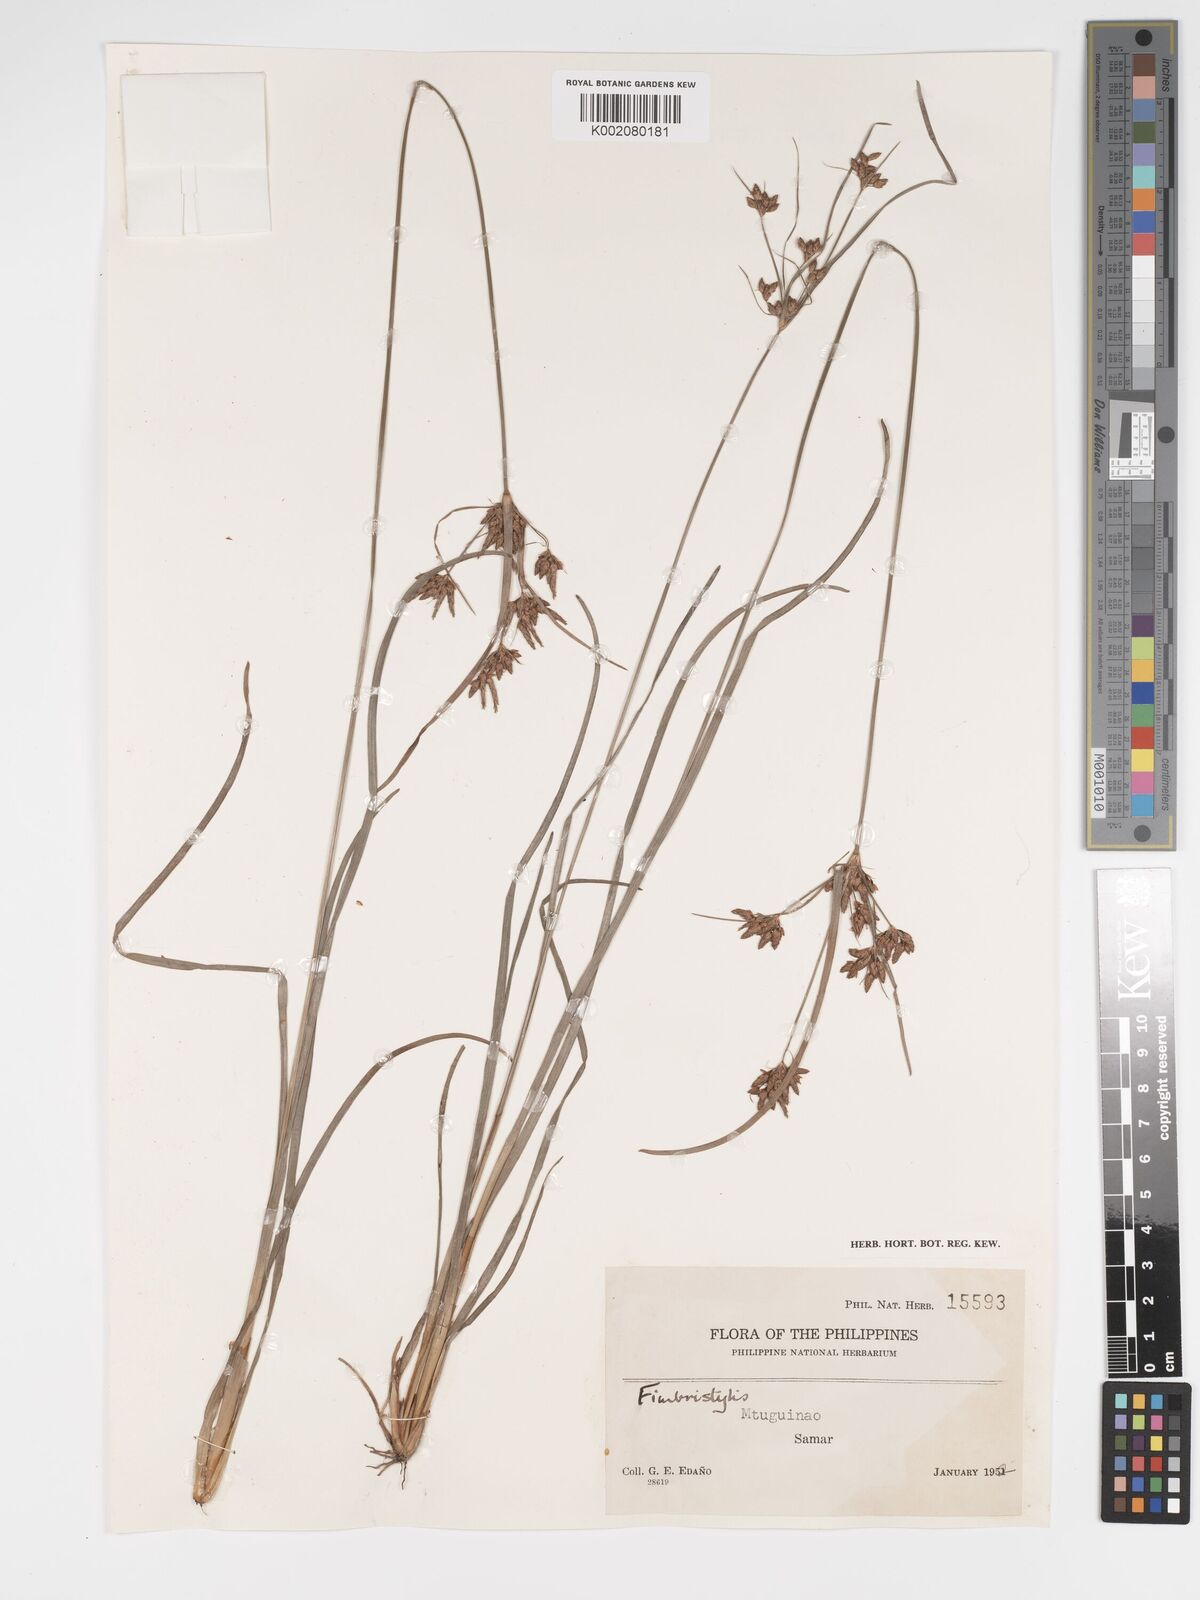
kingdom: Plantae
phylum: Tracheophyta
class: Liliopsida
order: Poales
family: Cyperaceae
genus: Fimbristylis
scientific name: Fimbristylis
